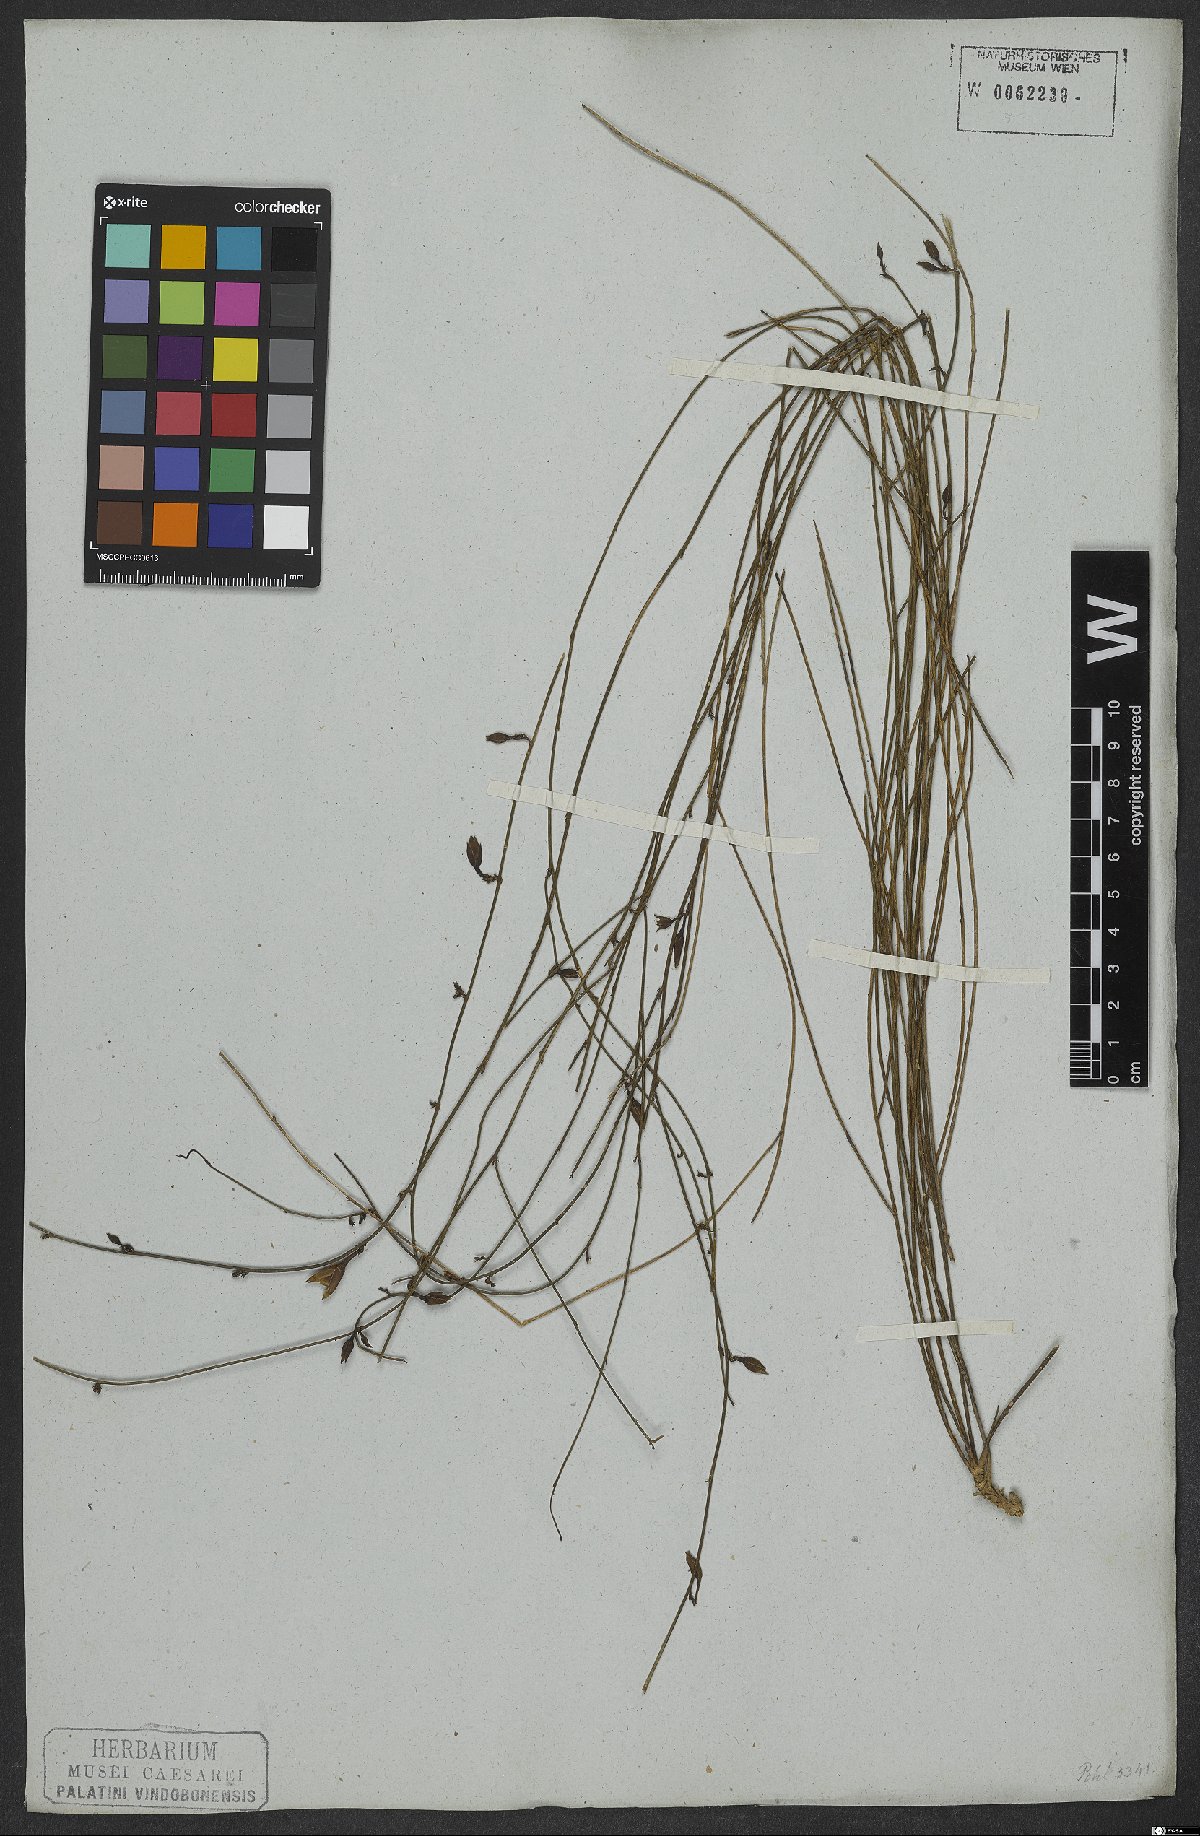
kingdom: Plantae
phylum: Tracheophyta
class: Magnoliopsida
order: Solanales
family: Convolvulaceae
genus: Distimake
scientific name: Distimake aturensis
